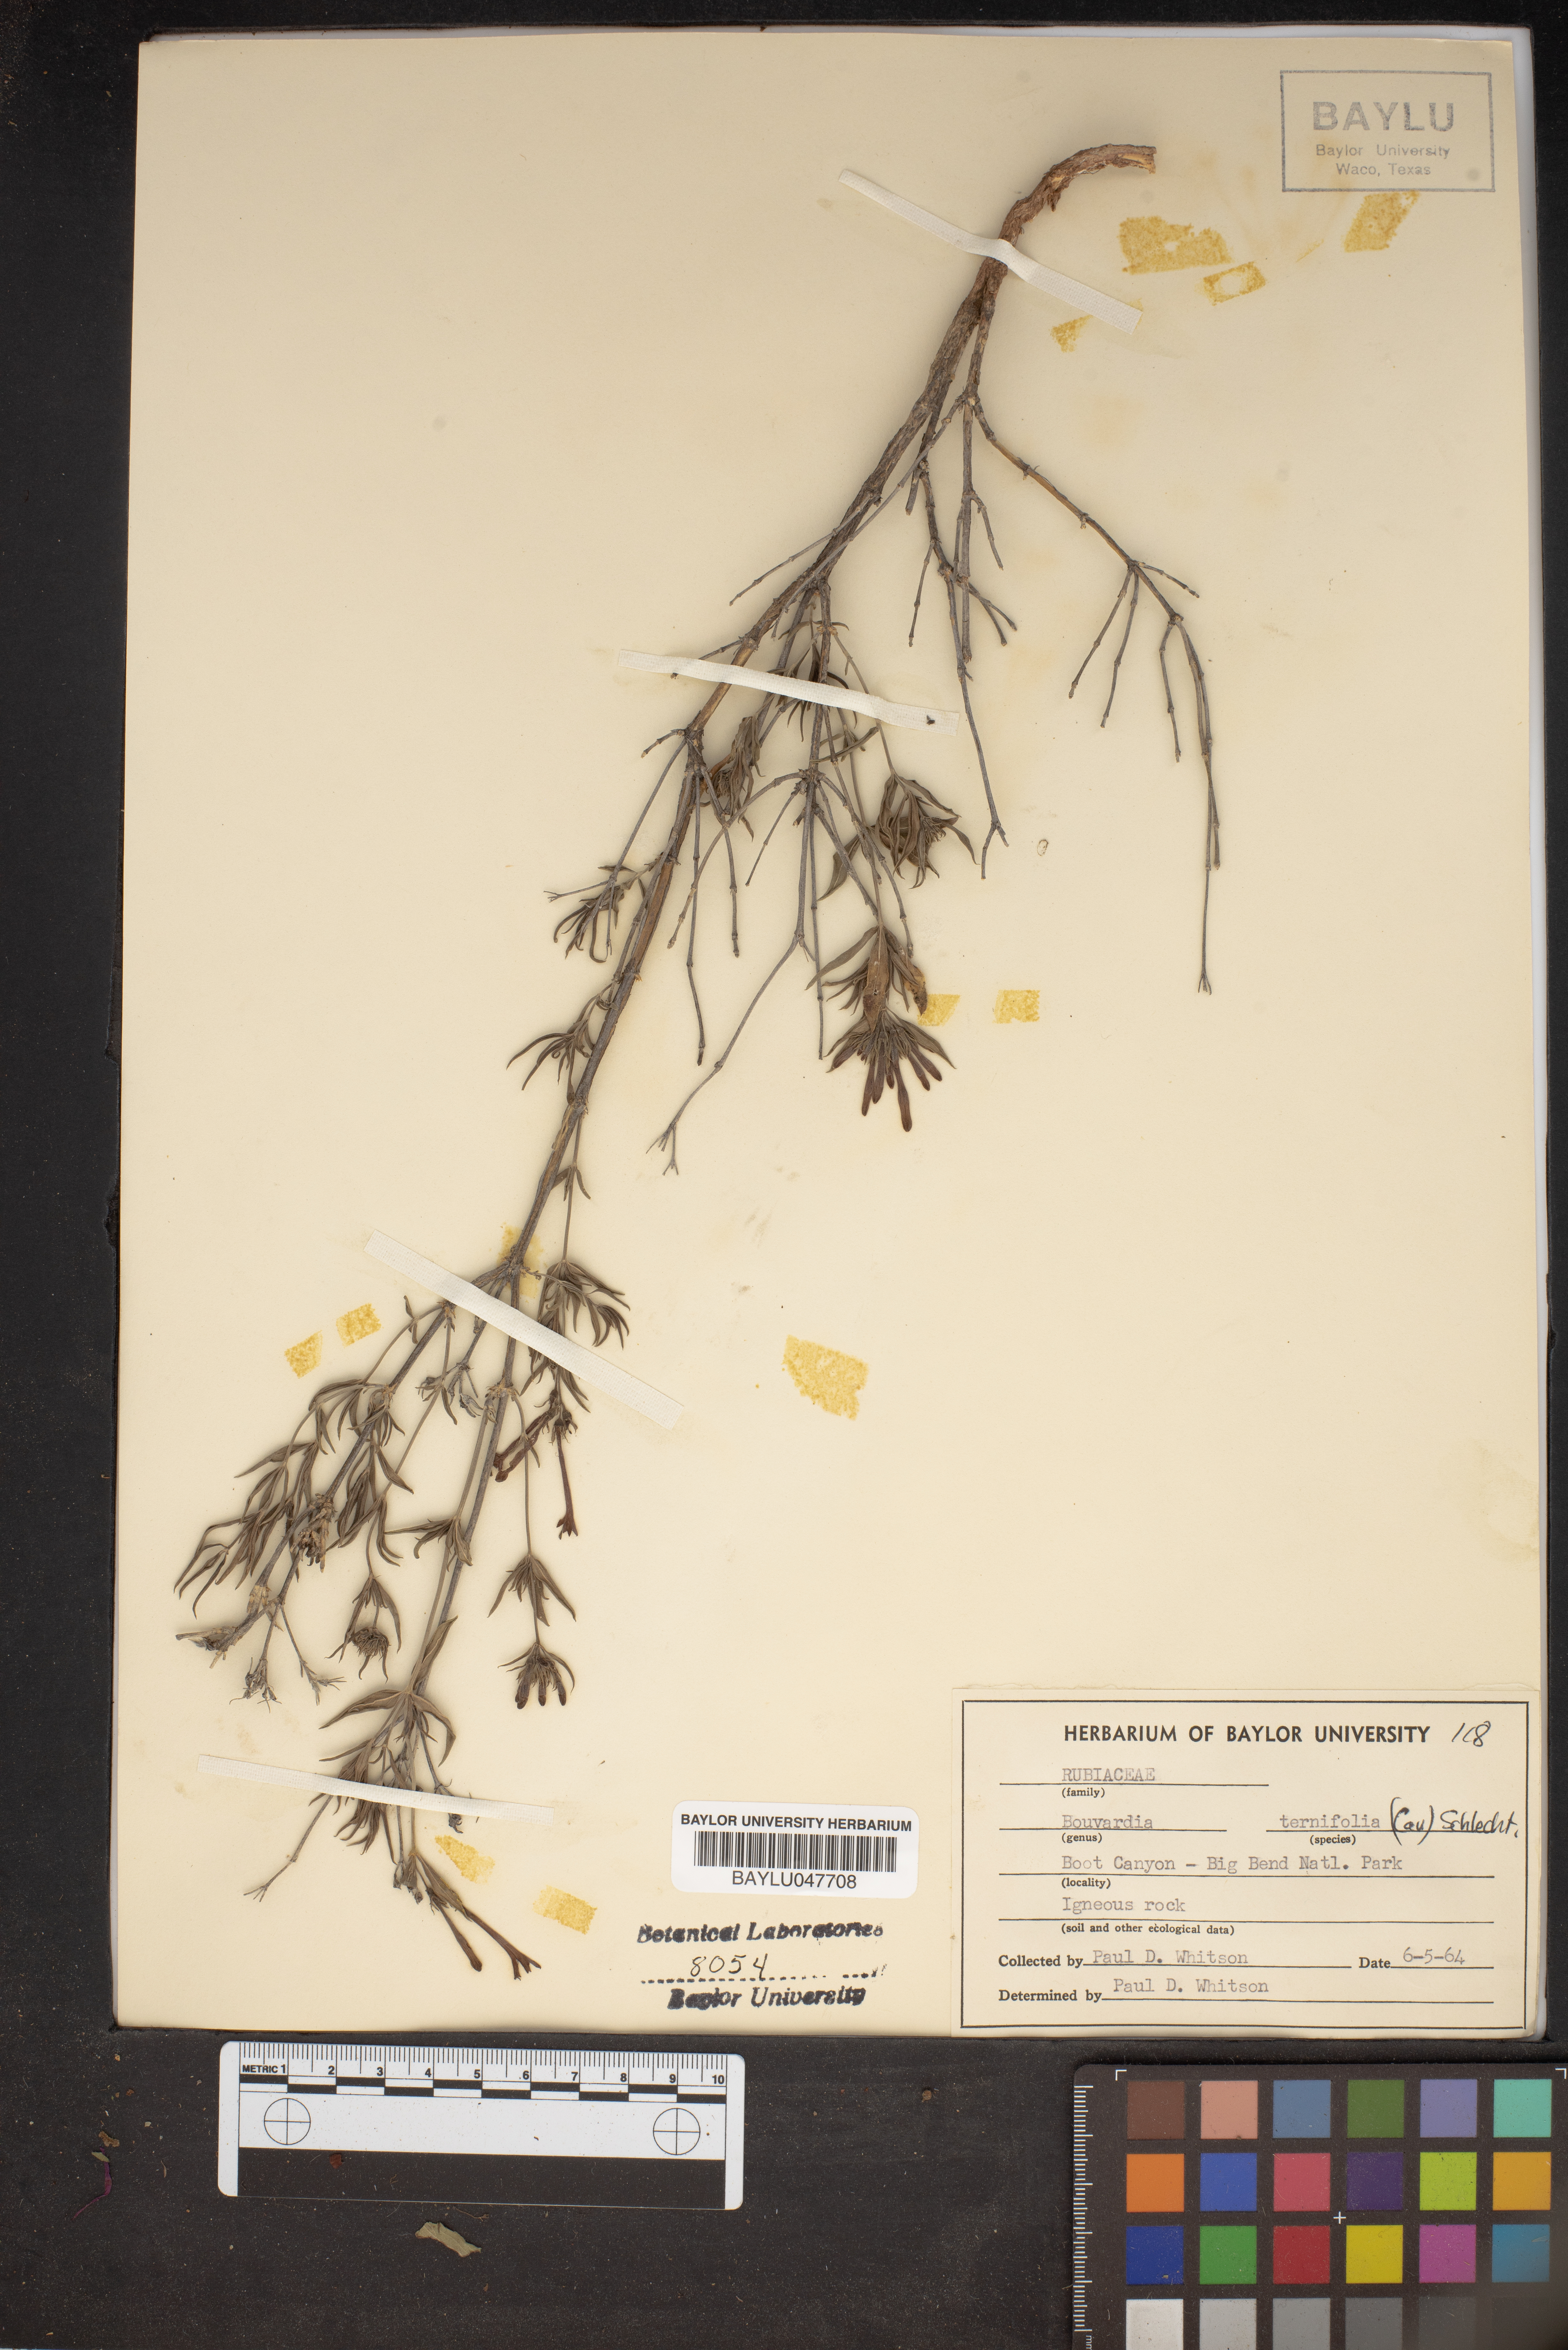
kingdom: Plantae
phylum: Tracheophyta
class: Magnoliopsida
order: Gentianales
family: Rubiaceae
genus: Bouvardia
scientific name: Bouvardia ternifolia
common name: Scarlet bouvardia
